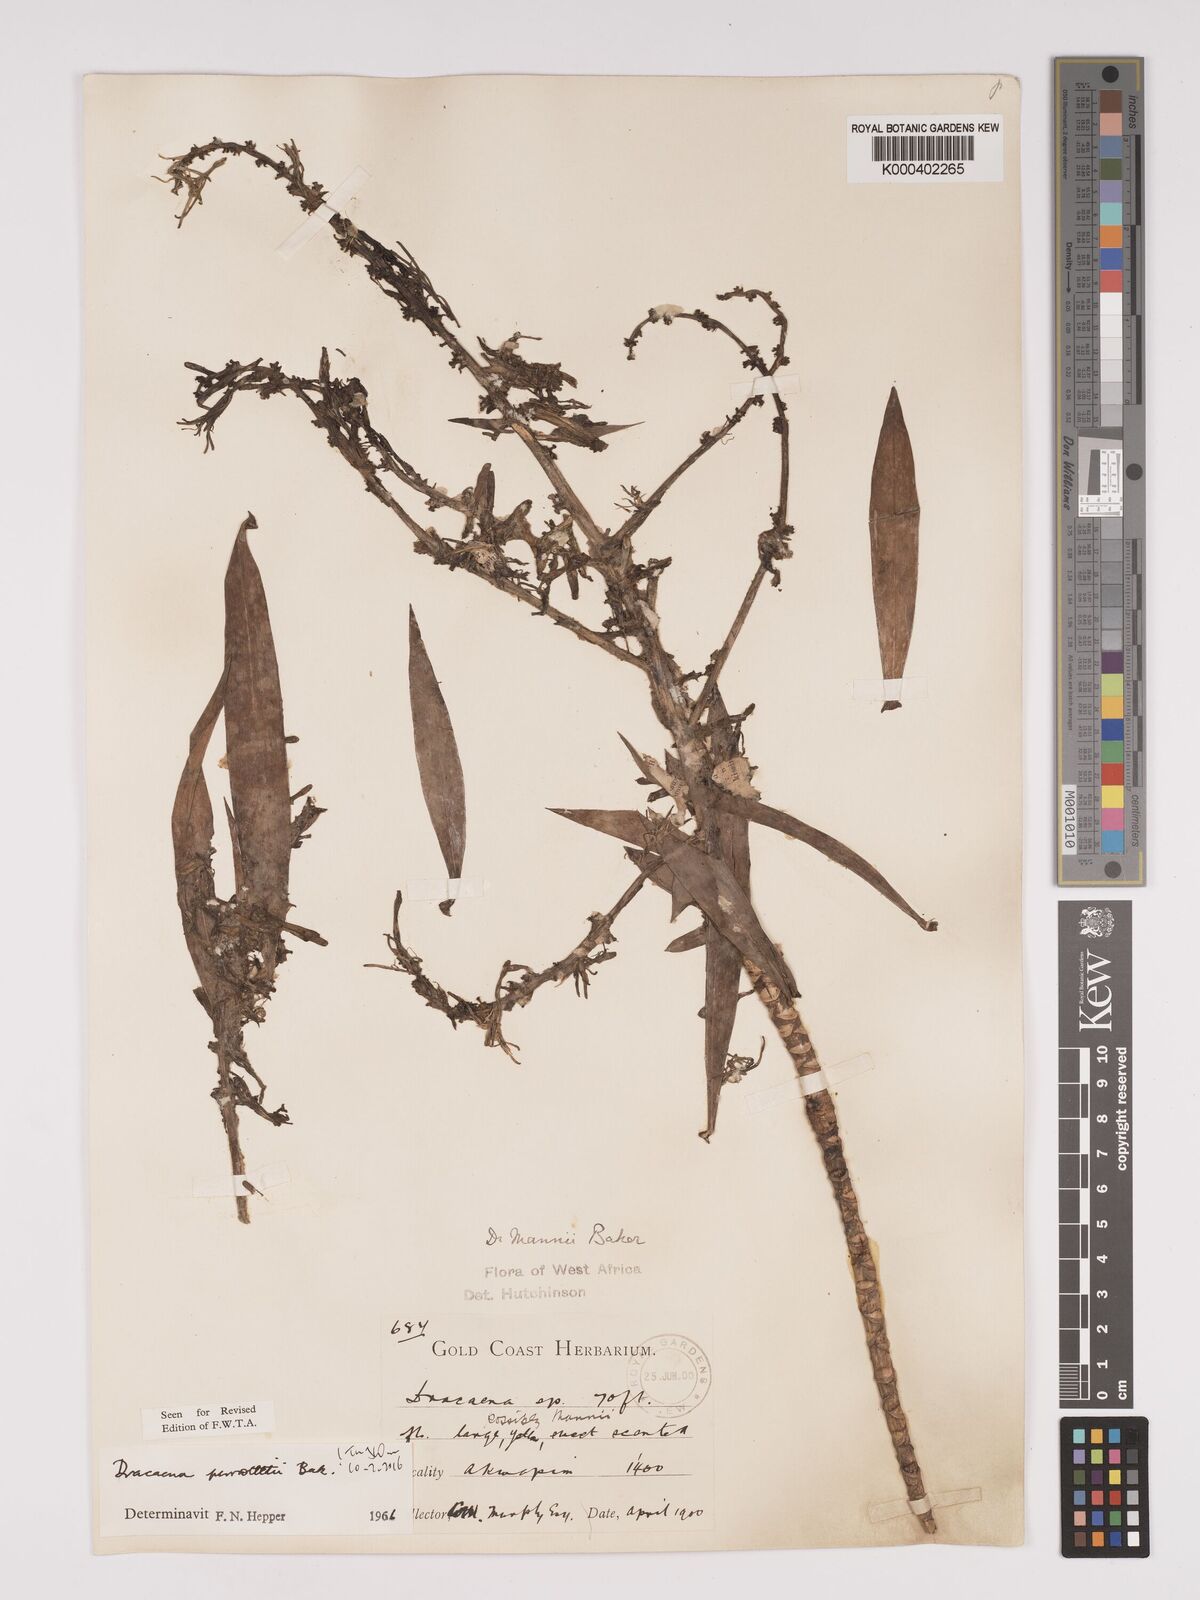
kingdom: Plantae
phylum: Tracheophyta
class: Liliopsida
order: Asparagales
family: Asparagaceae
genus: Dracaena
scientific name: Dracaena perrottetii
